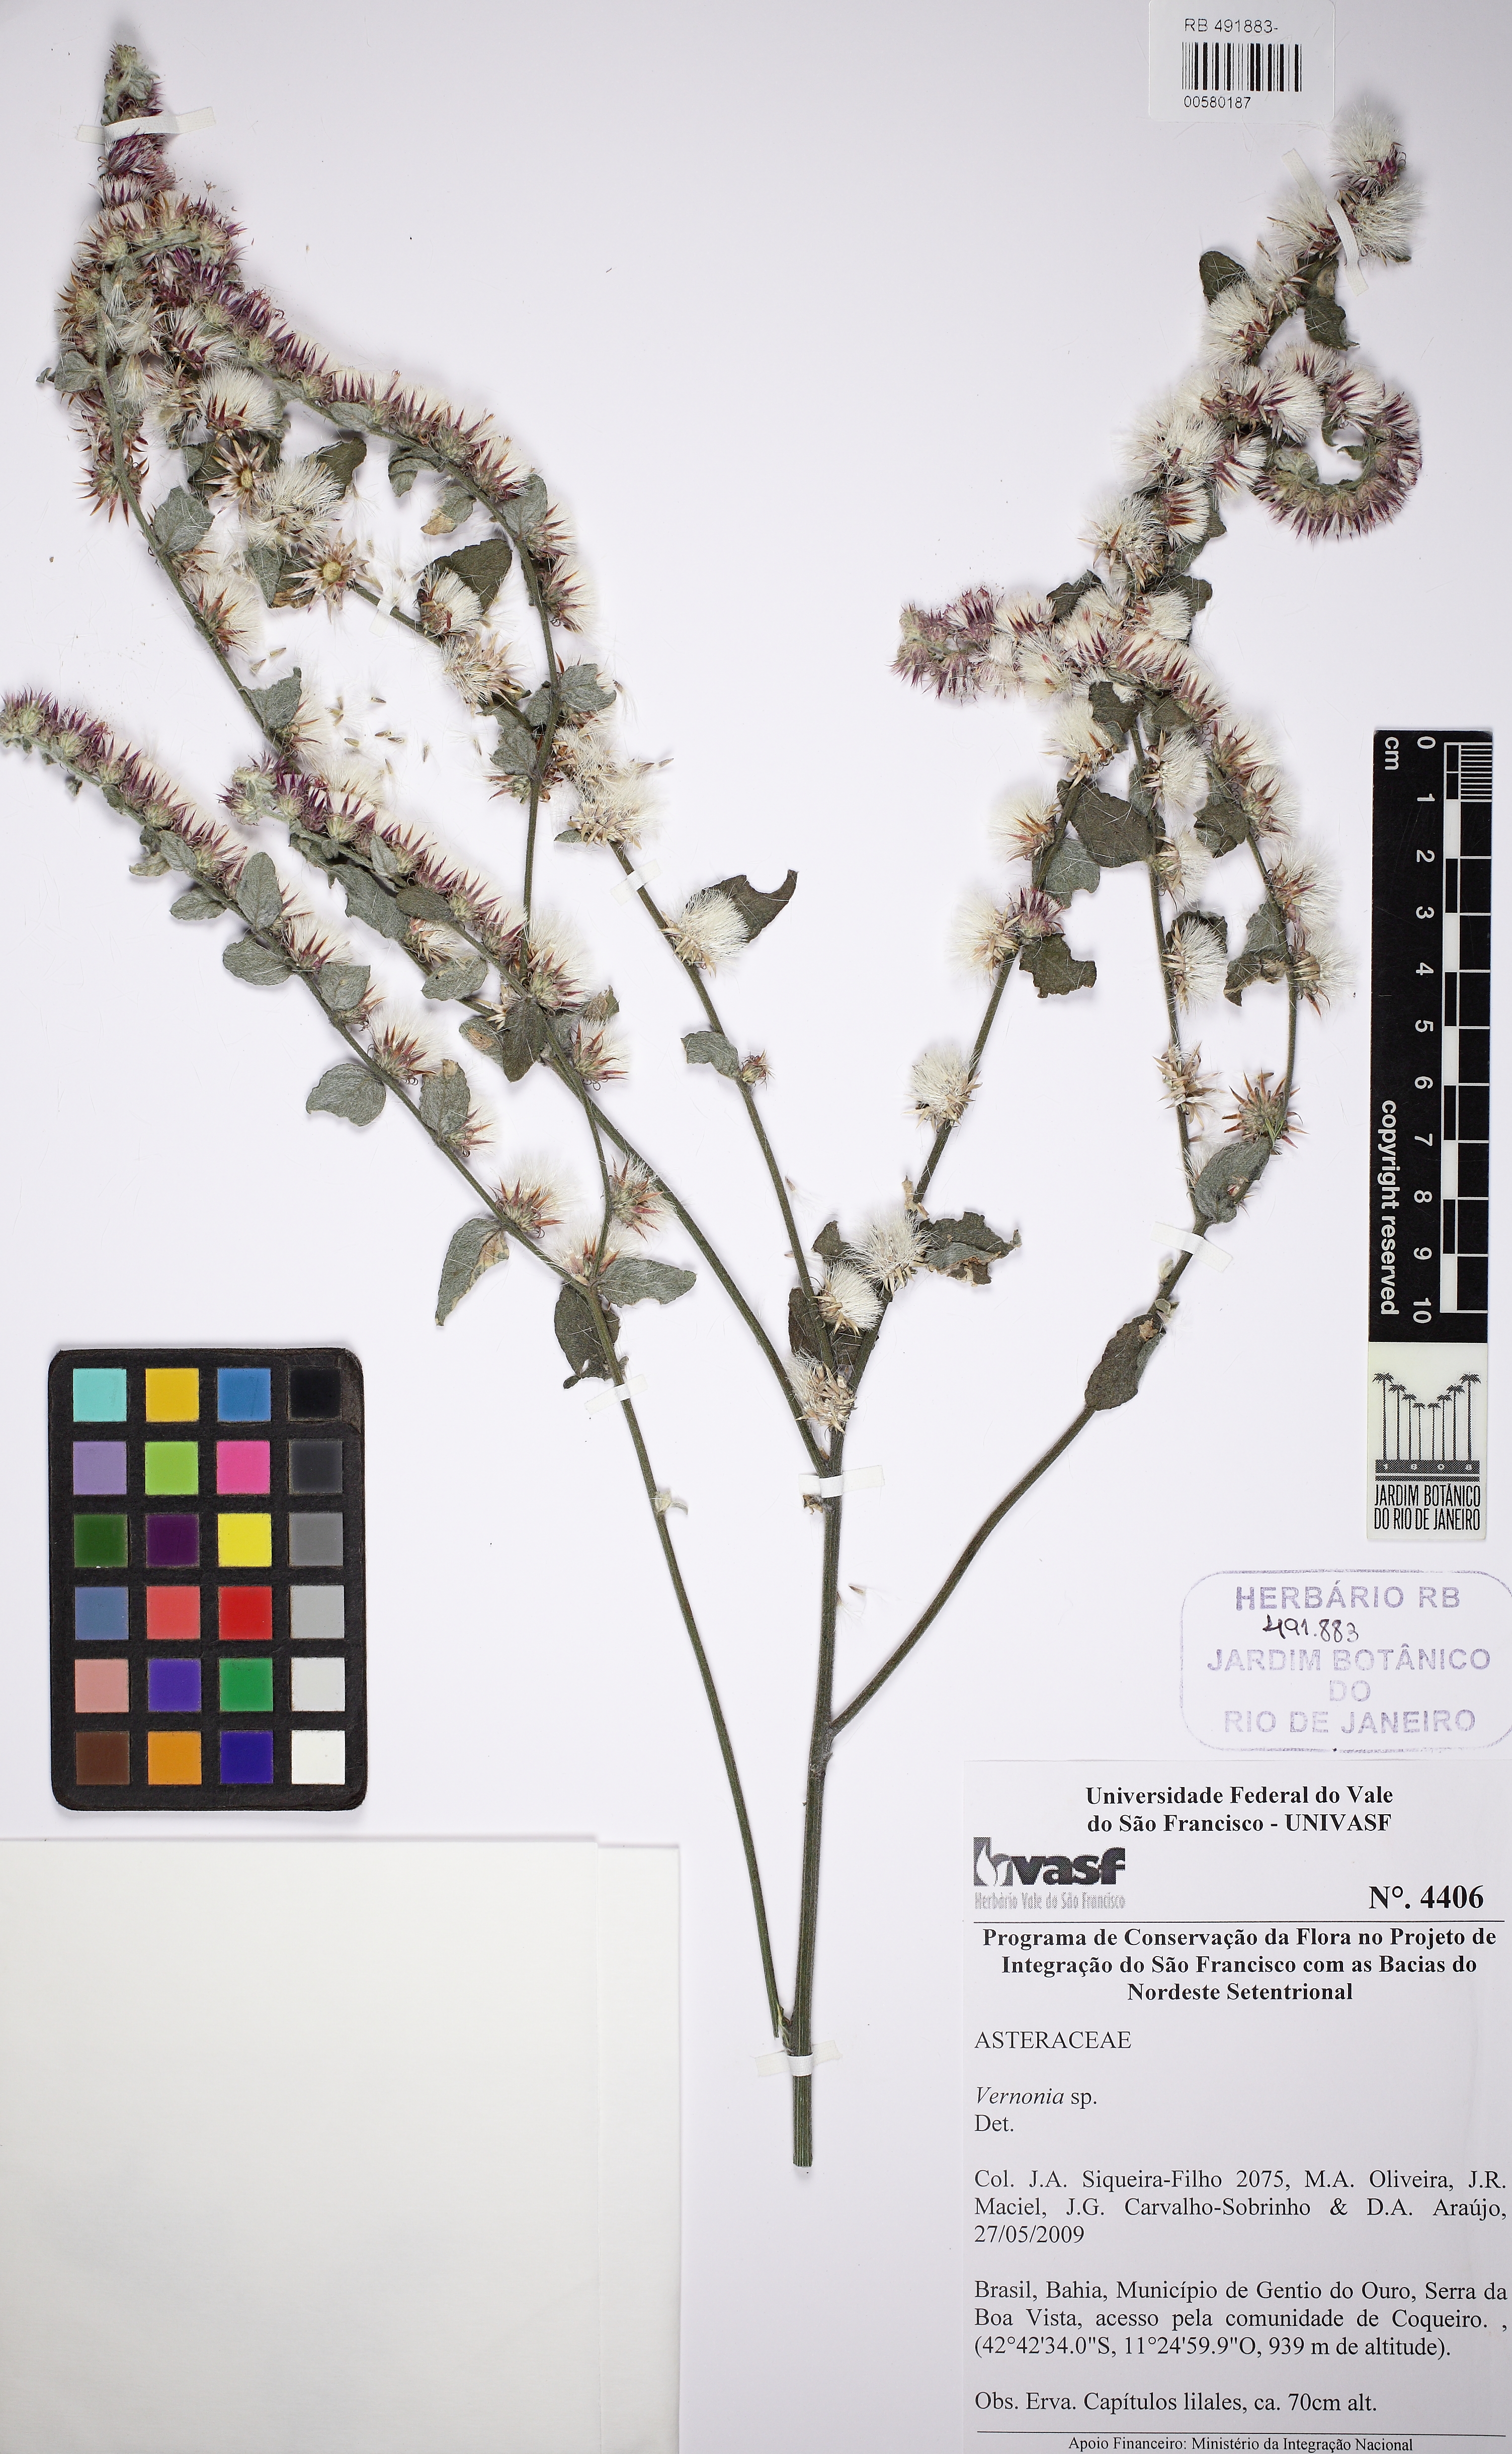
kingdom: Plantae
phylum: Tracheophyta
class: Magnoliopsida
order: Asterales
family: Asteraceae
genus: Vernonia
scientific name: Vernonia
